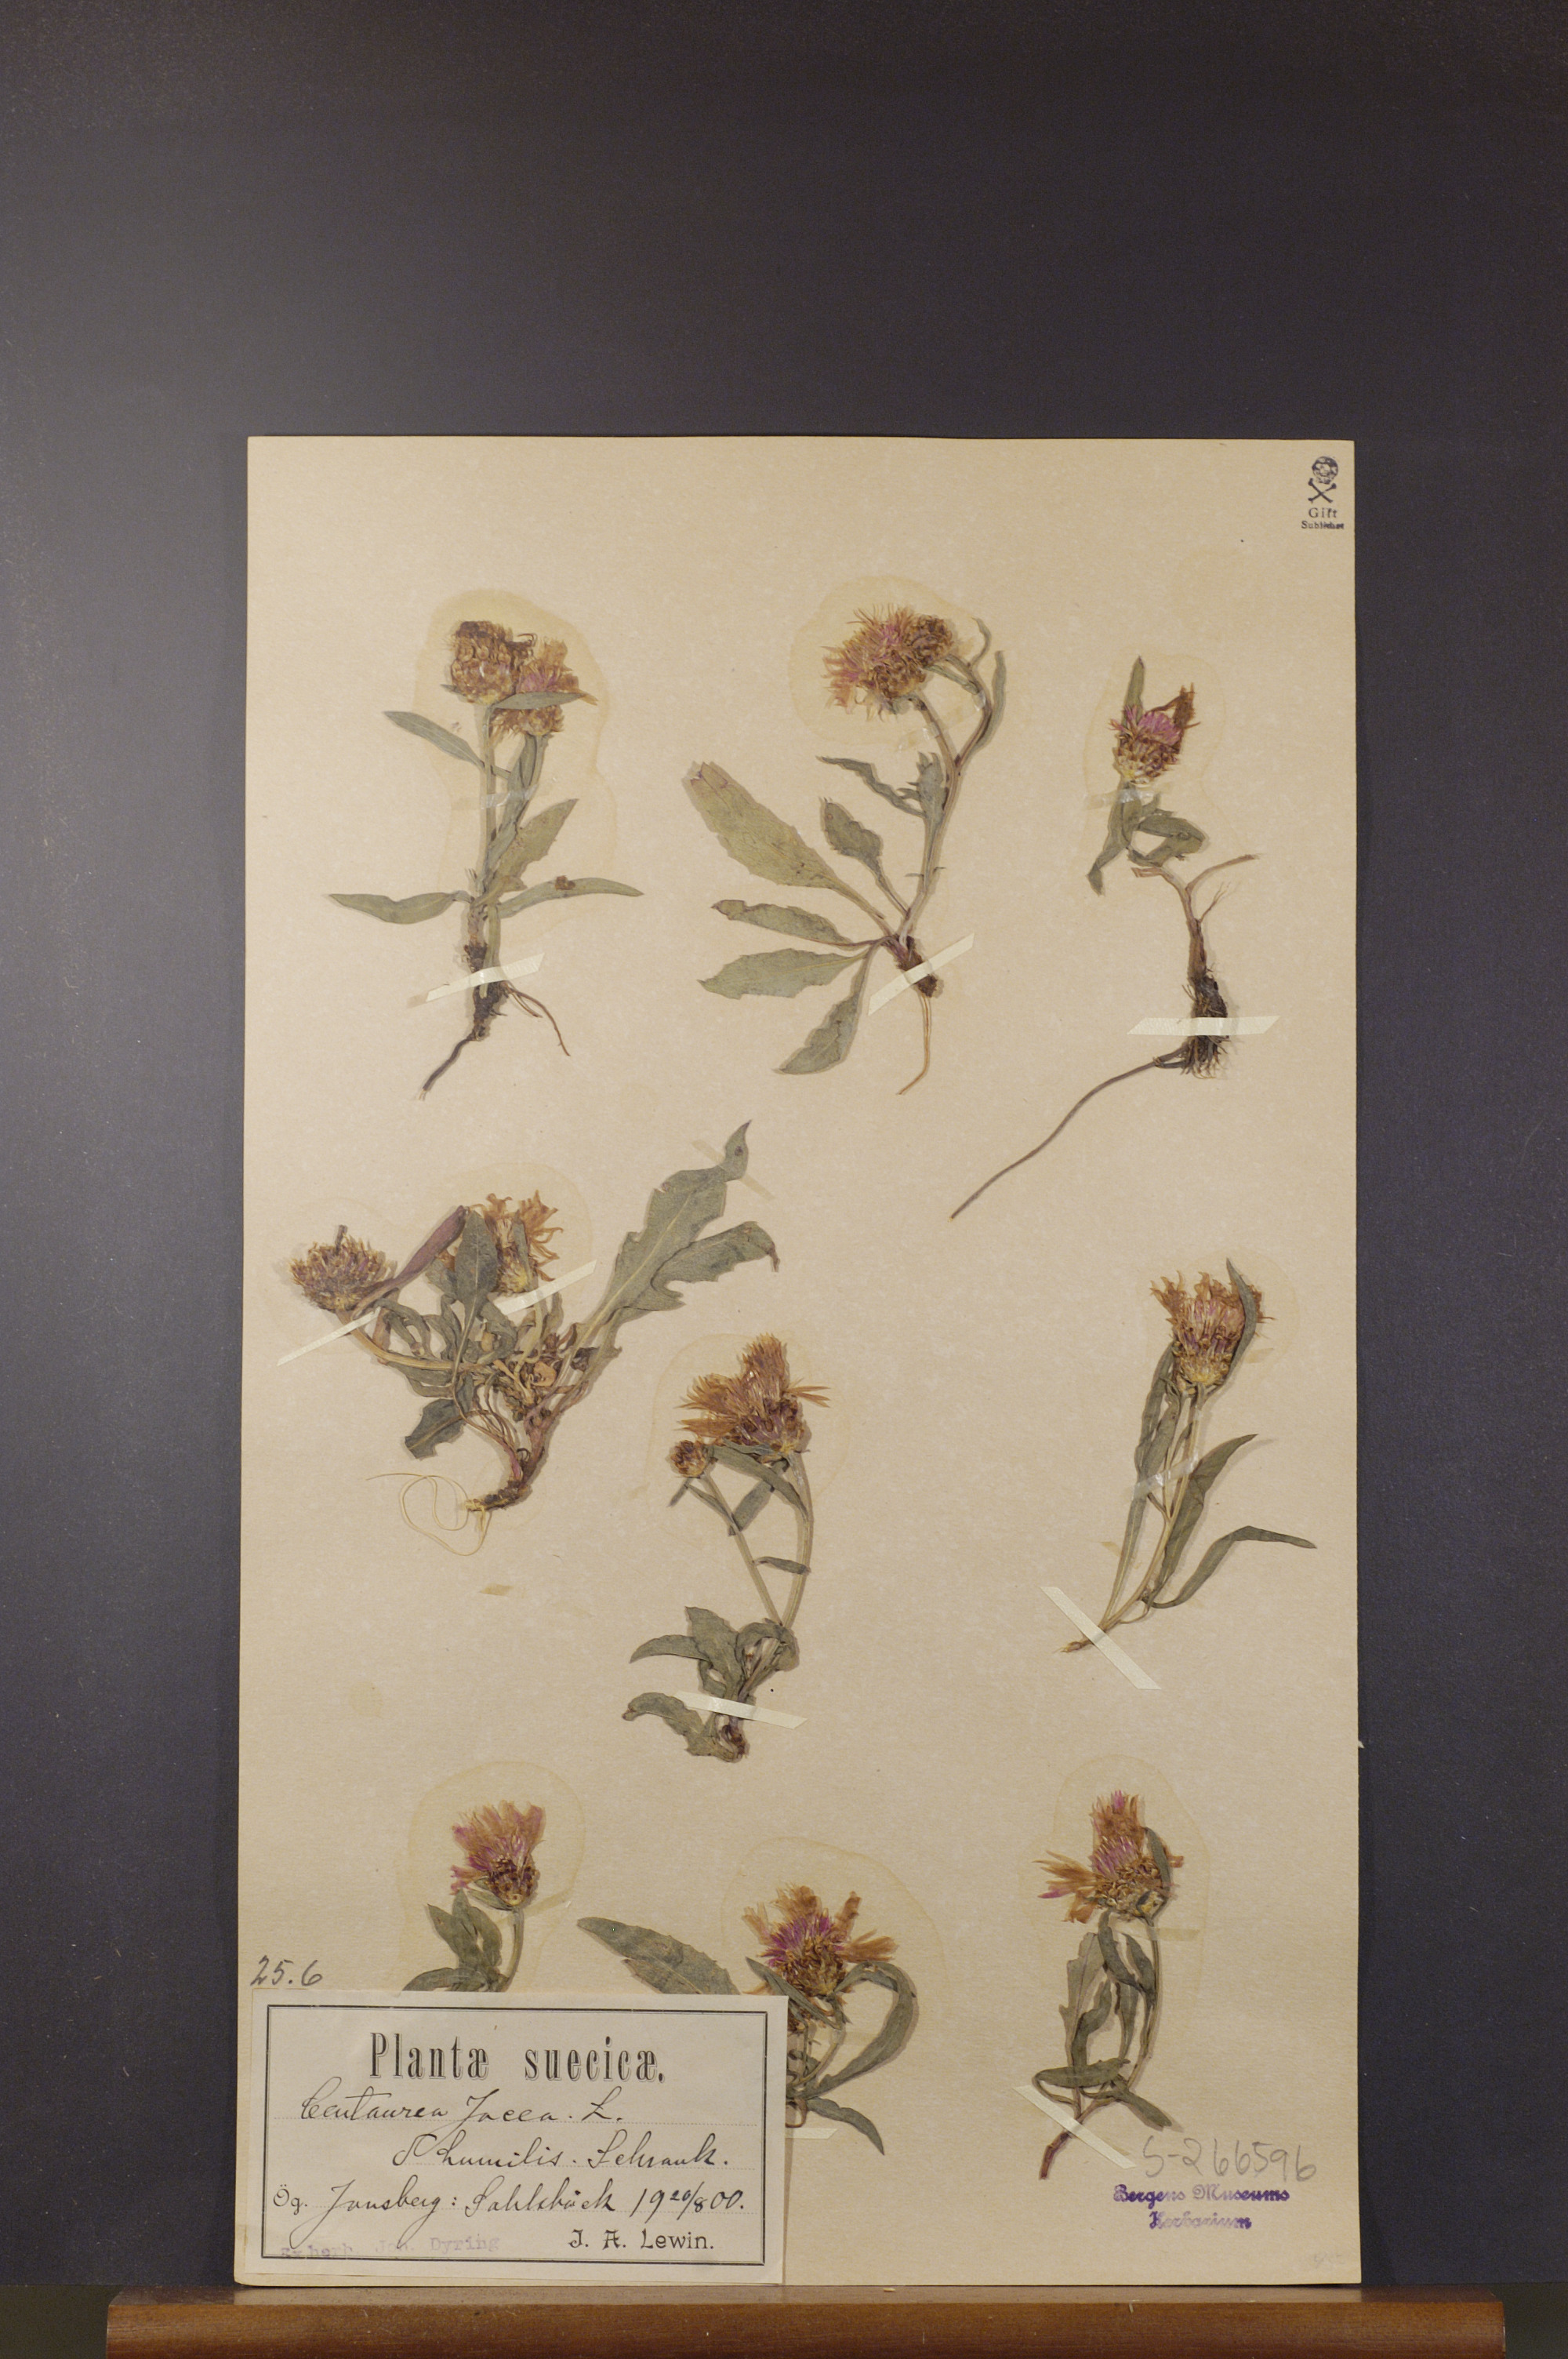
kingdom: Plantae
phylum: Tracheophyta
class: Magnoliopsida
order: Asterales
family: Asteraceae
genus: Centaurea
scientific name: Centaurea jacea
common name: Brown knapweed
